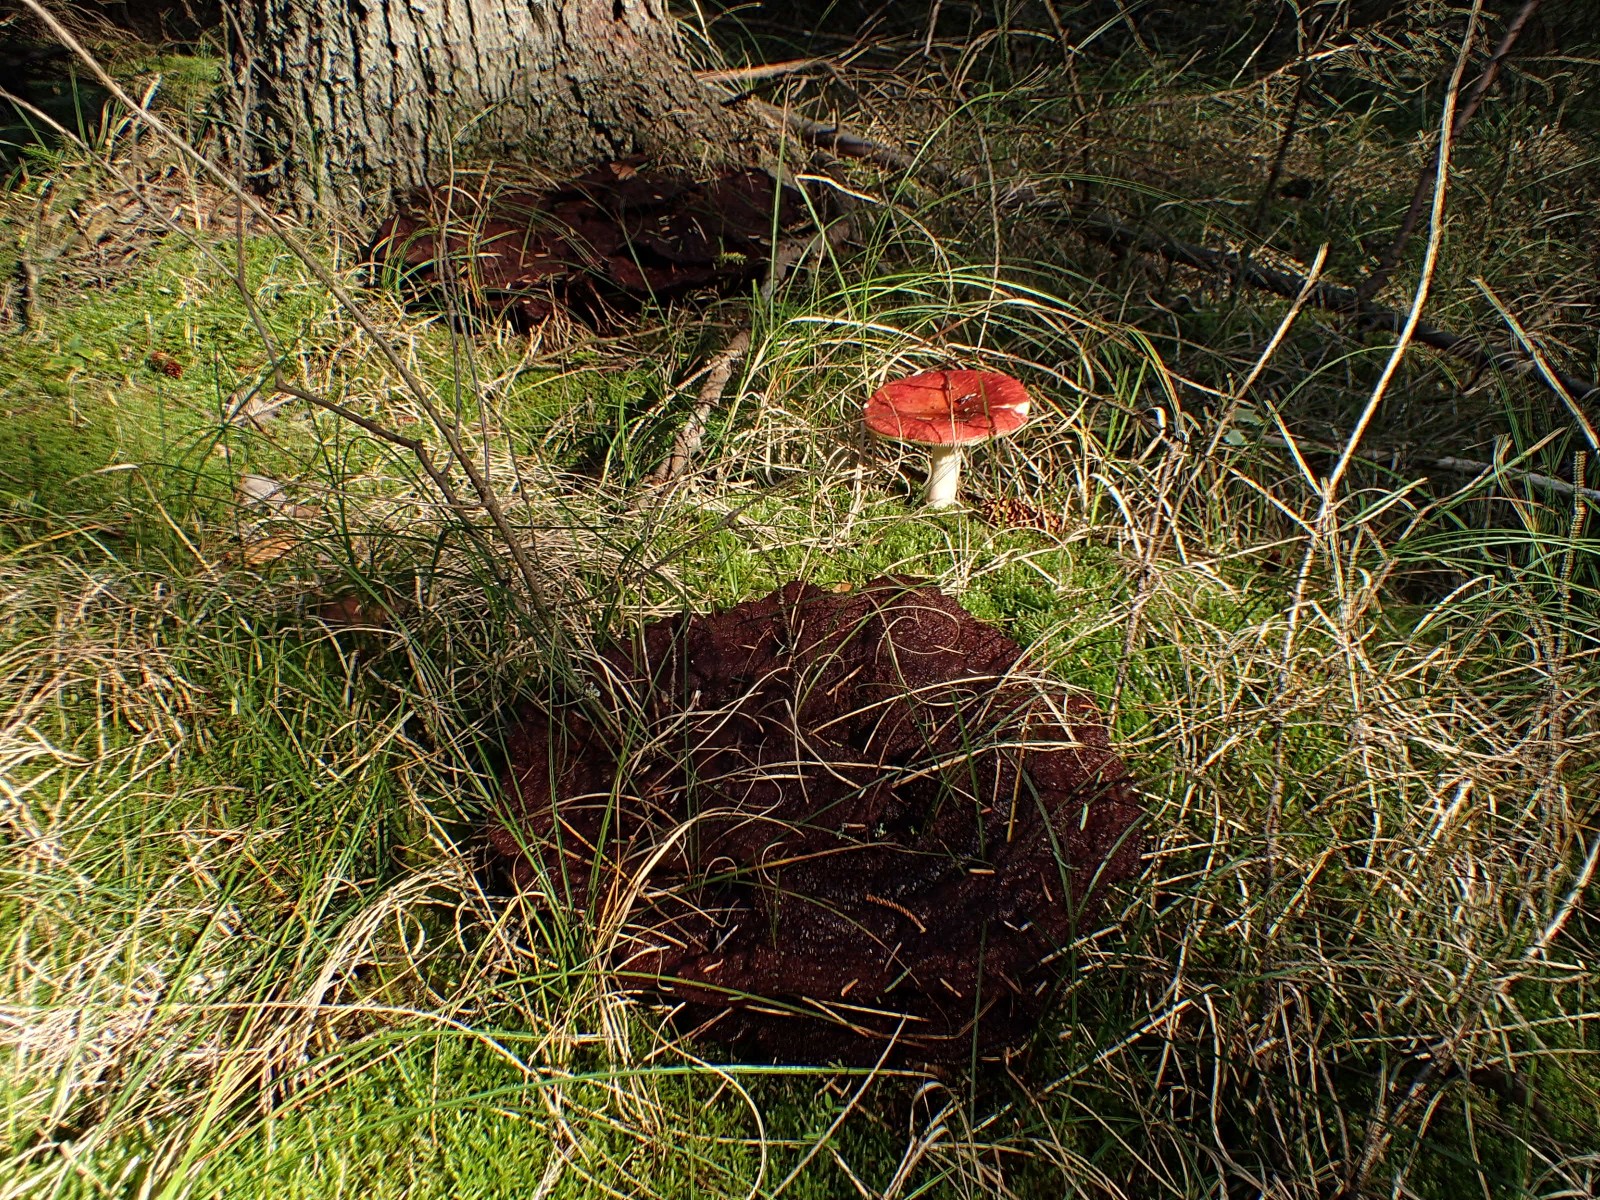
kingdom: Fungi
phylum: Basidiomycota
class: Agaricomycetes
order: Polyporales
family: Laetiporaceae
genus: Phaeolus
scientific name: Phaeolus schweinitzii
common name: brunporesvamp
